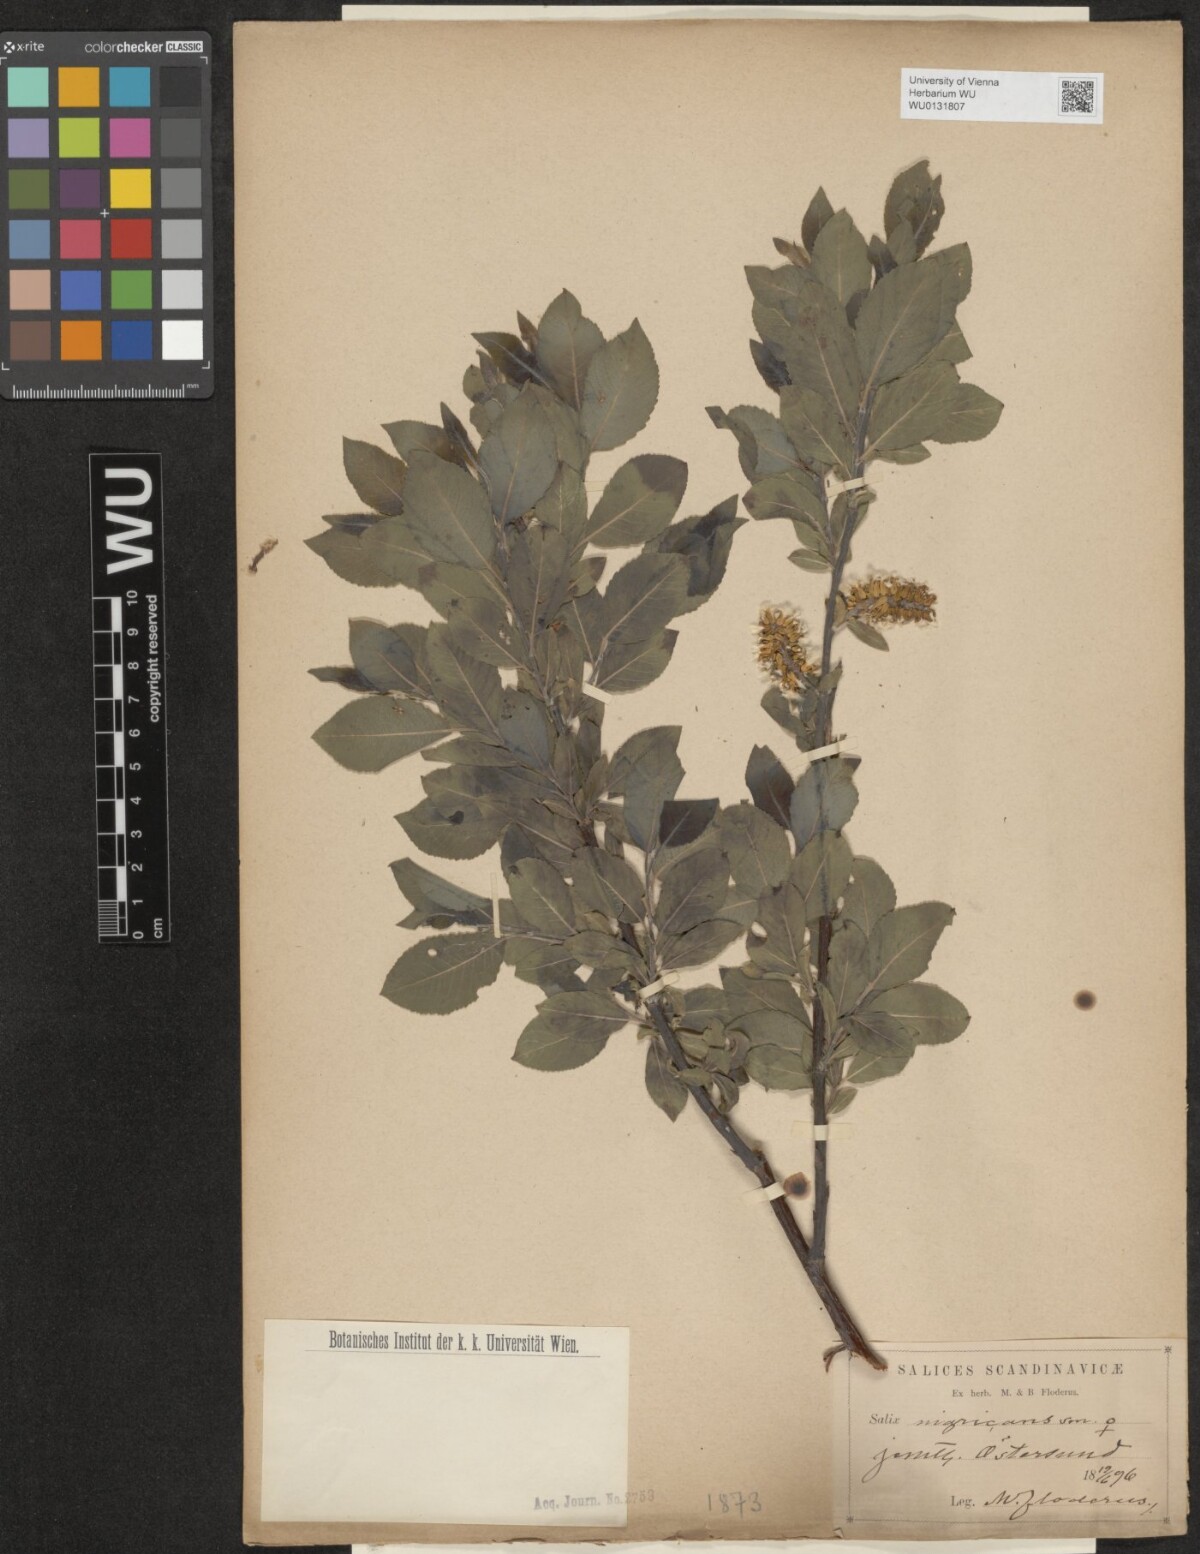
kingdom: Plantae
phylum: Tracheophyta
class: Magnoliopsida
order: Malpighiales
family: Salicaceae
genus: Salix
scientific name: Salix myrsinifolia
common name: Dark-leaved willow
